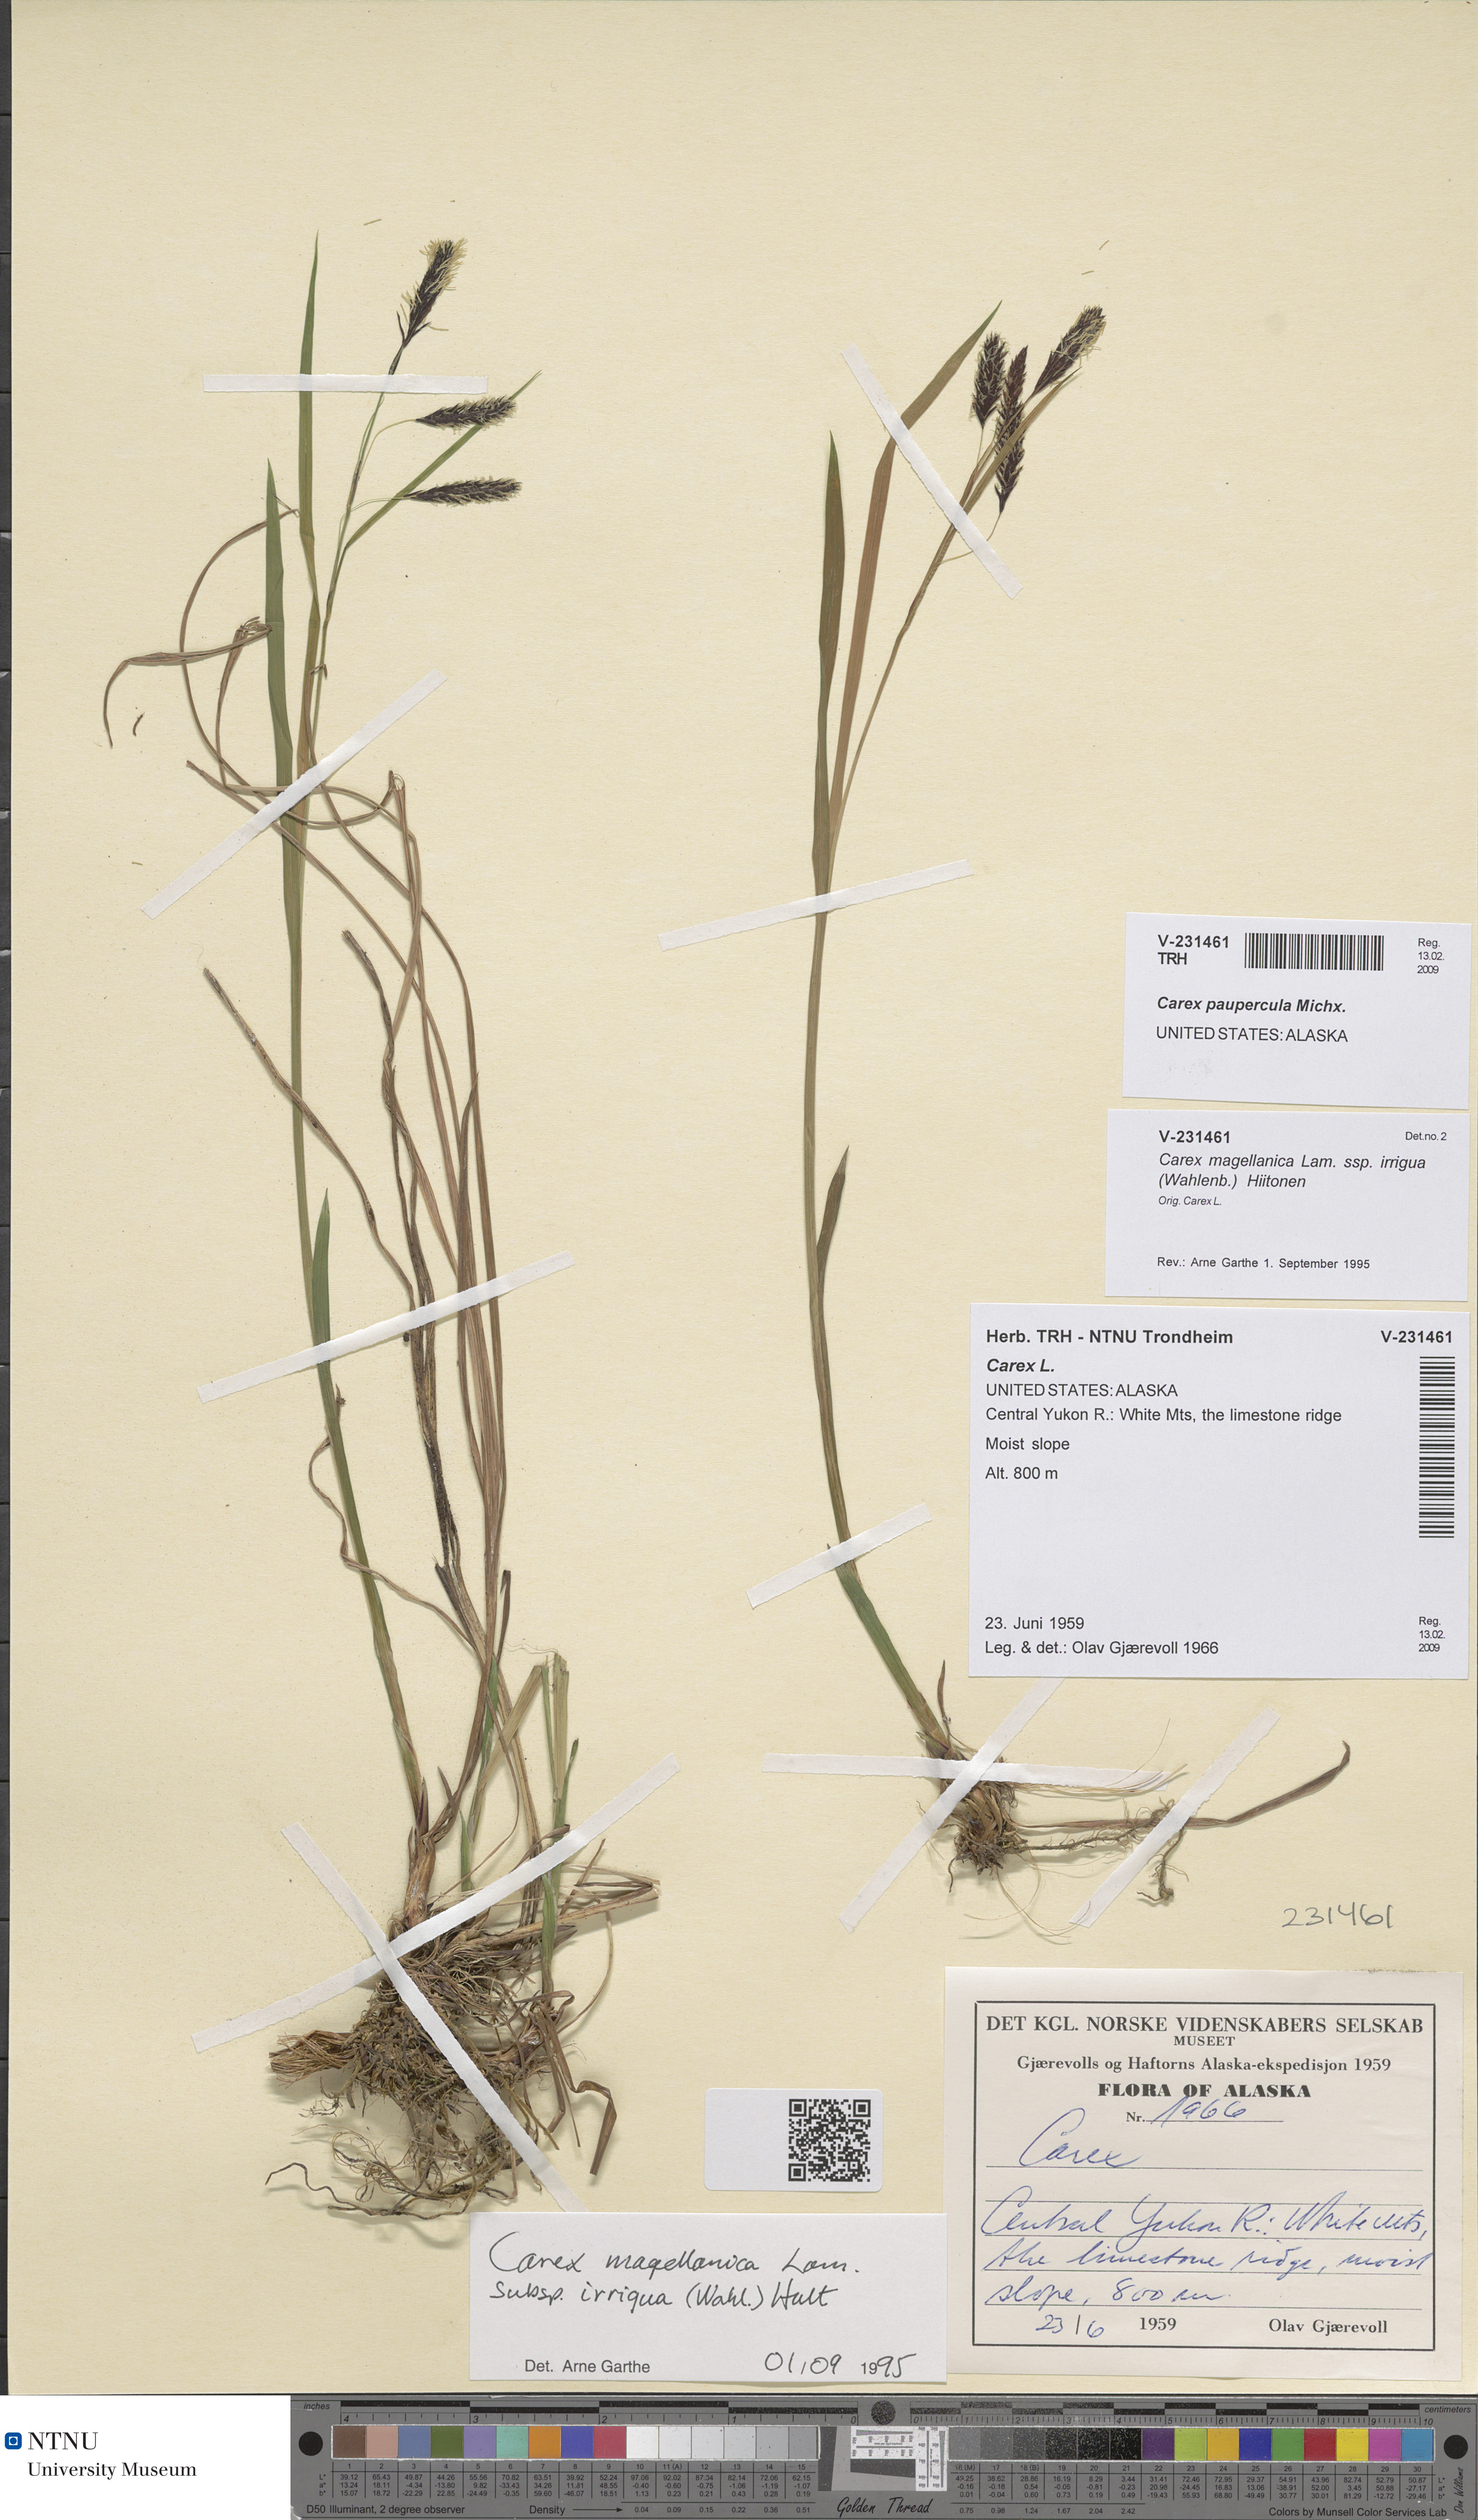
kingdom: Plantae
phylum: Tracheophyta
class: Liliopsida
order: Poales
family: Cyperaceae
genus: Carex
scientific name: Carex magellanica
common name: Bog sedge
